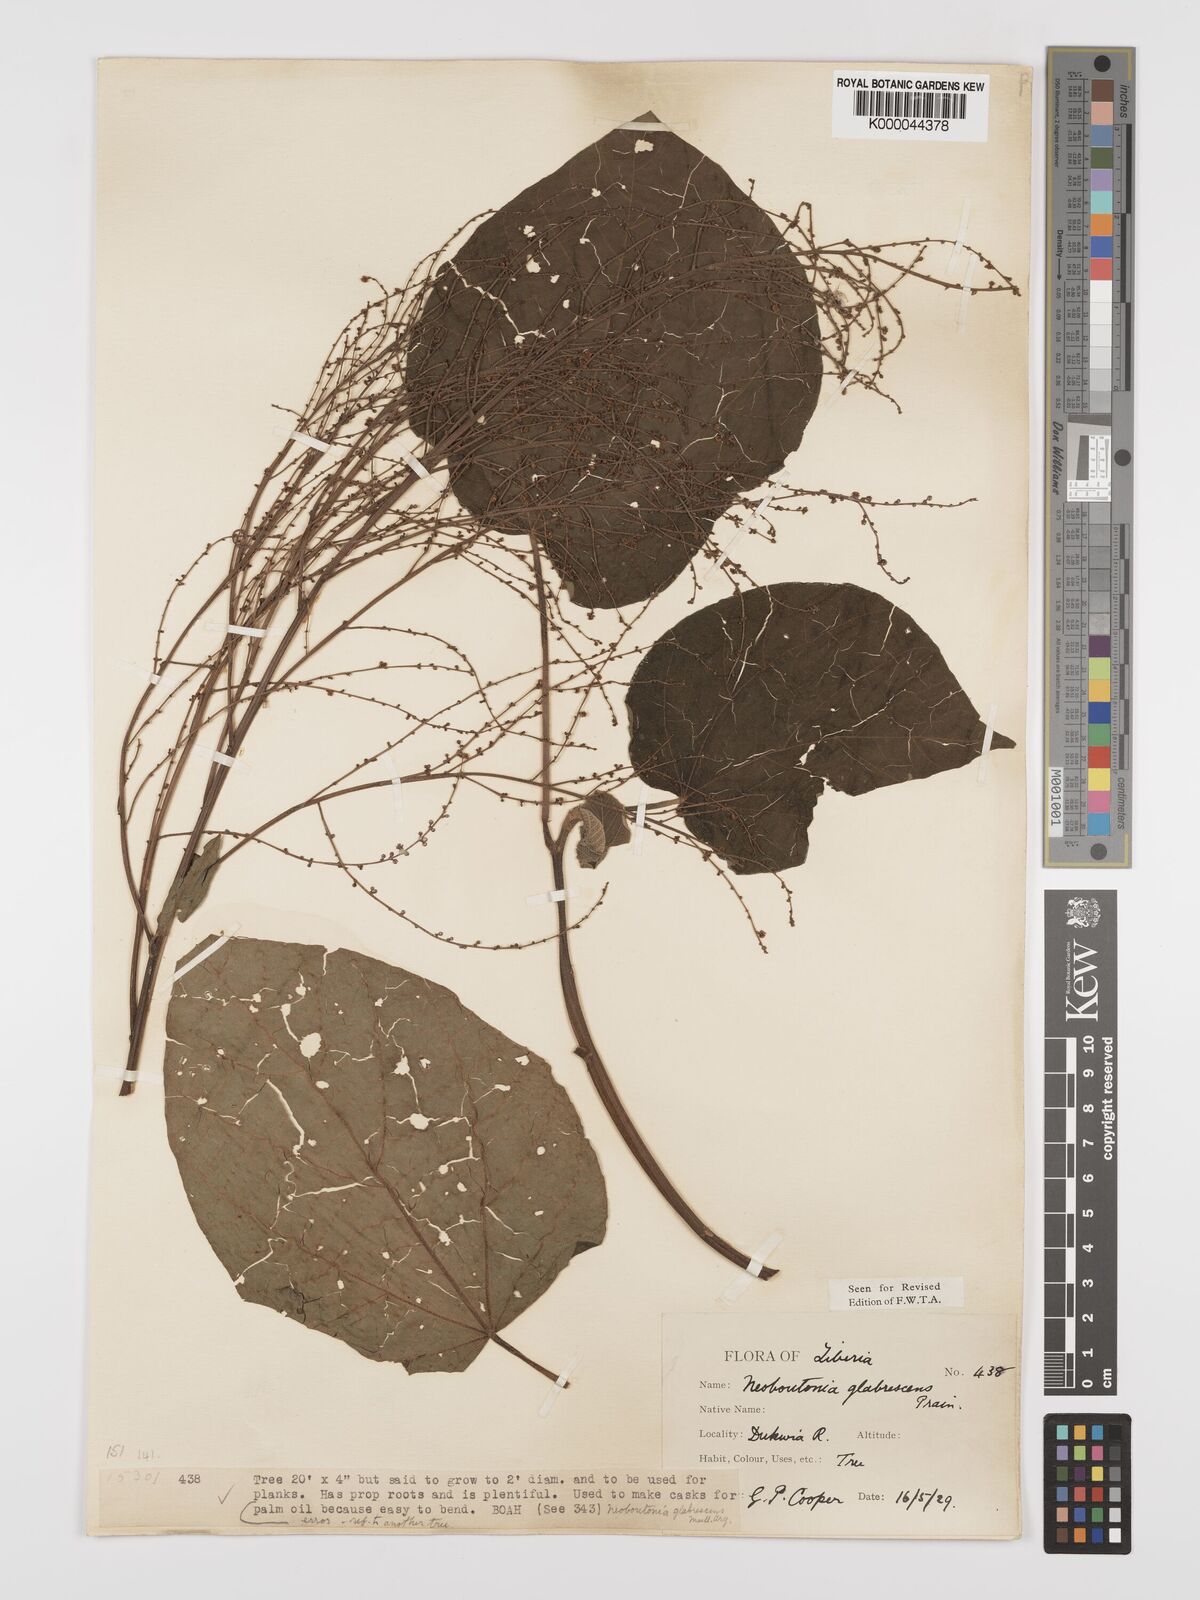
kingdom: Plantae
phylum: Tracheophyta
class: Magnoliopsida
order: Malpighiales
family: Euphorbiaceae
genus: Neoboutonia
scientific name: Neoboutonia mannii
